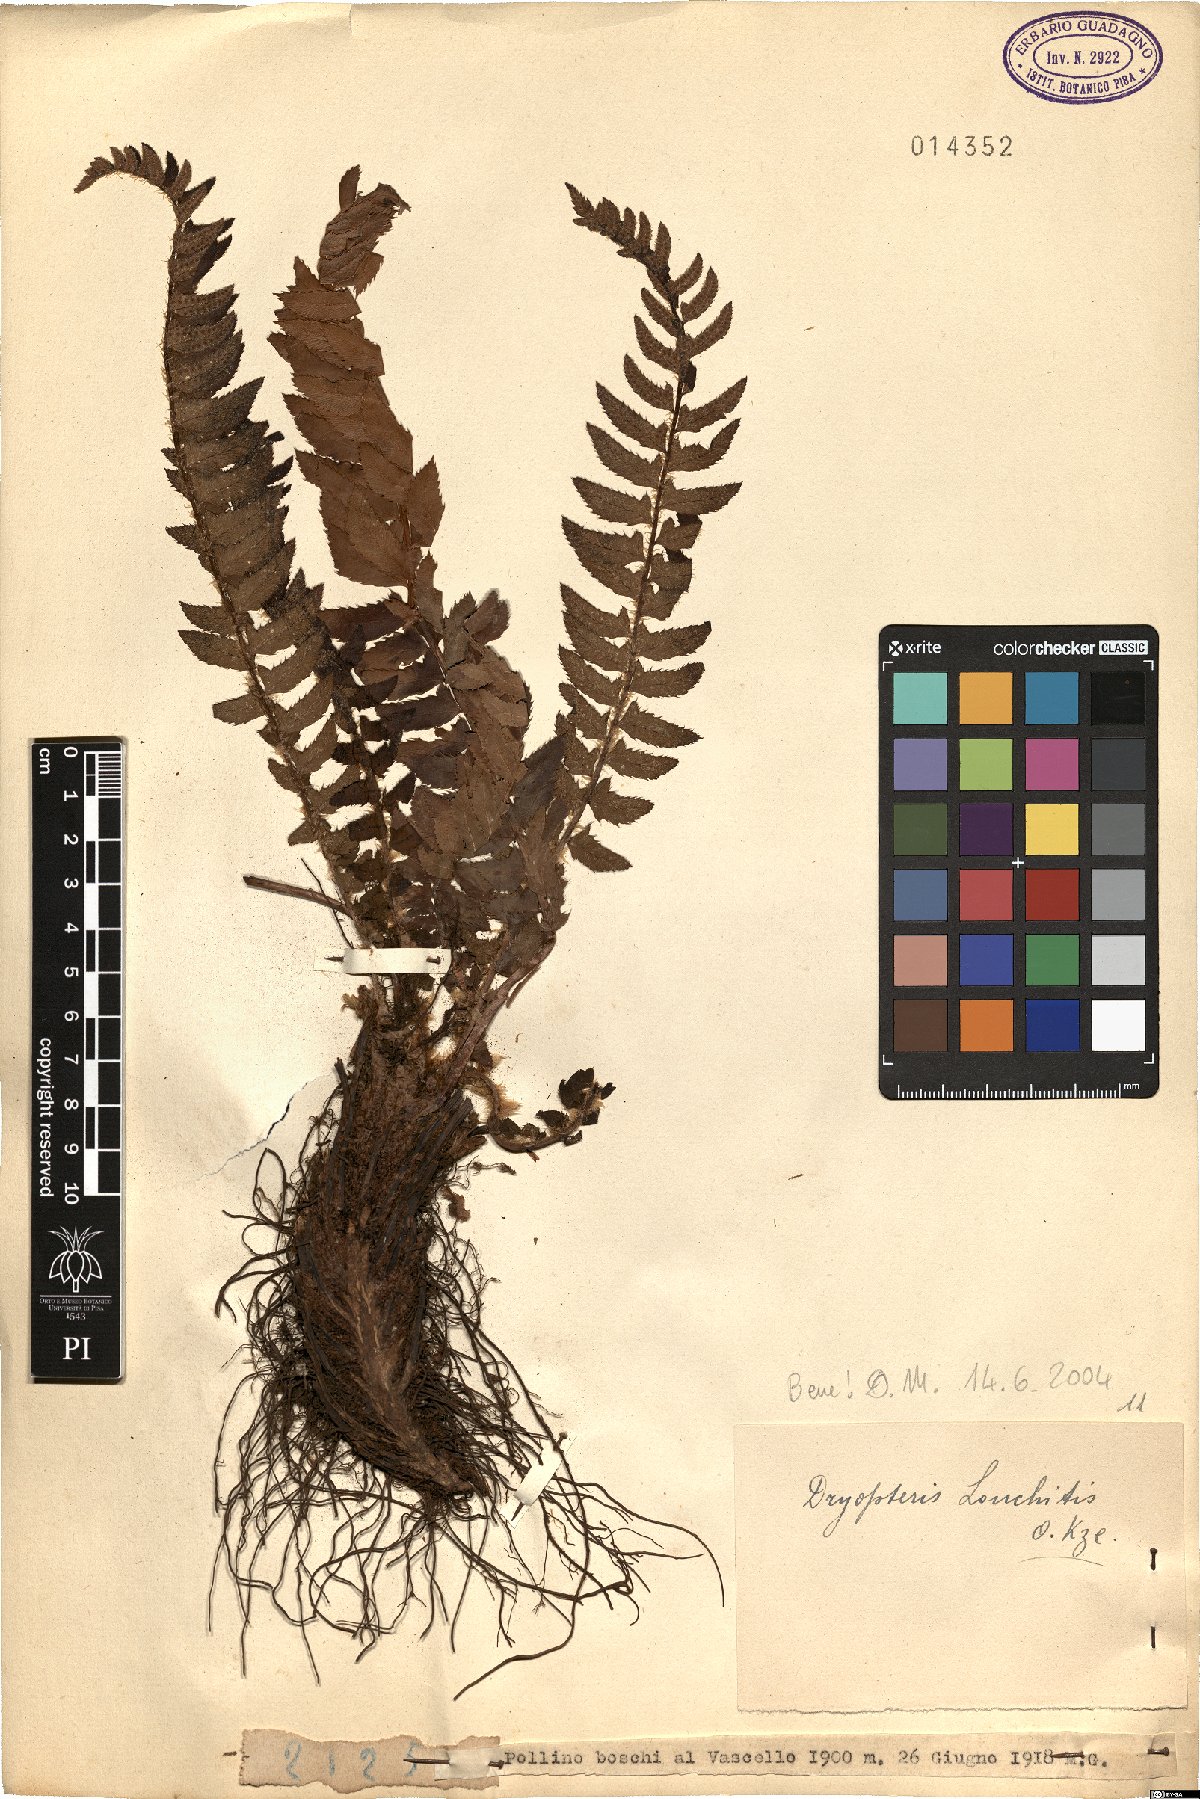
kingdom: Plantae
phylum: Tracheophyta
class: Polypodiopsida
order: Polypodiales
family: Dryopteridaceae
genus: Polystichum
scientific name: Polystichum lonchitis
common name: Holly fern
